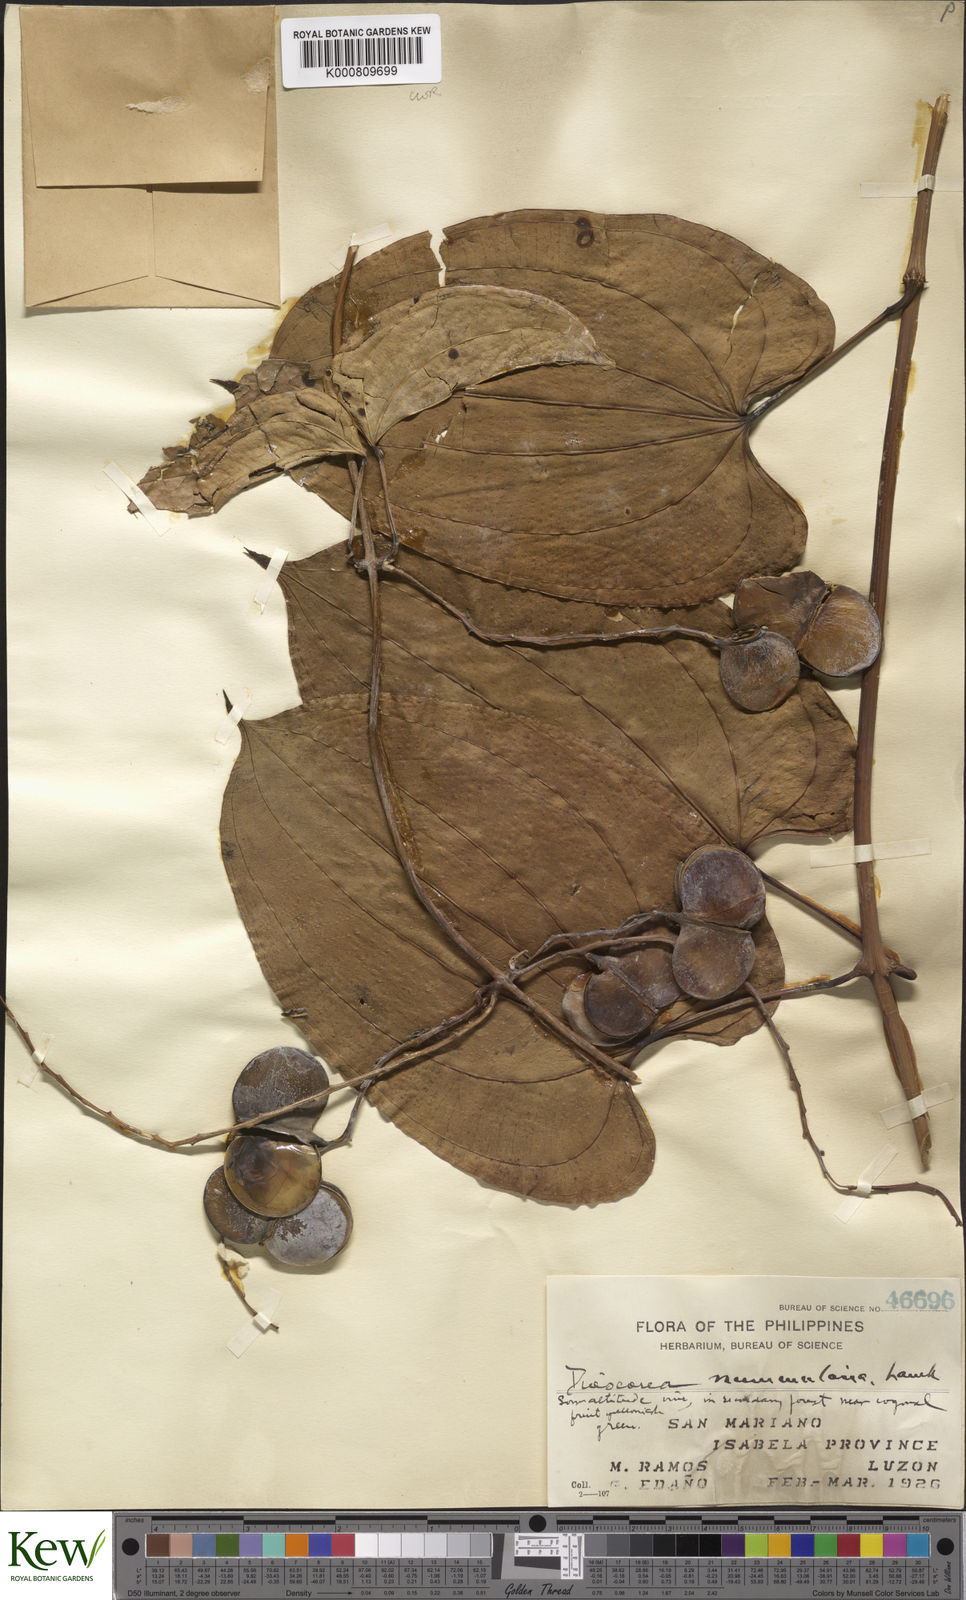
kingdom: Plantae
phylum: Tracheophyta
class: Liliopsida
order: Dioscoreales
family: Dioscoreaceae
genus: Dioscorea
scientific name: Dioscorea nummularia
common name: Pacific yam
